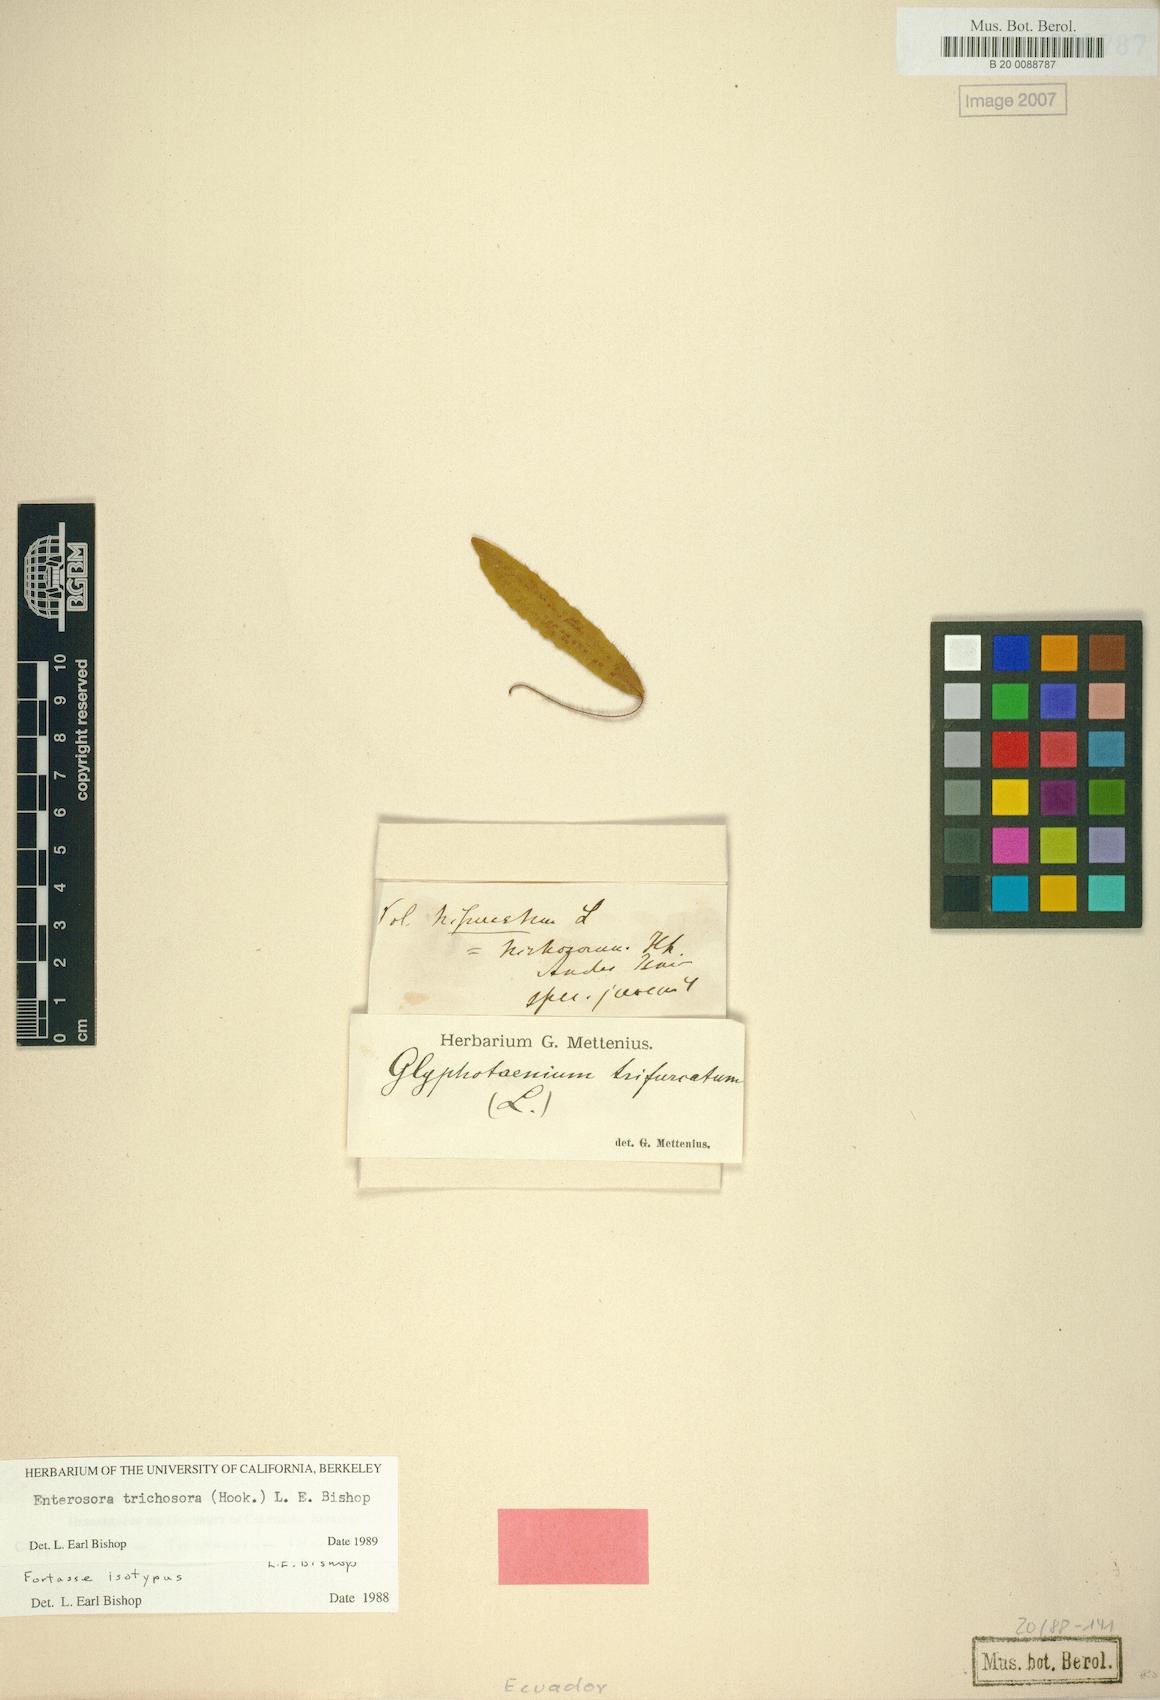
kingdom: Plantae
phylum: Tracheophyta
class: Polypodiopsida
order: Polypodiales
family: Polypodiaceae
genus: Enterosora
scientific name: Enterosora trichosora
